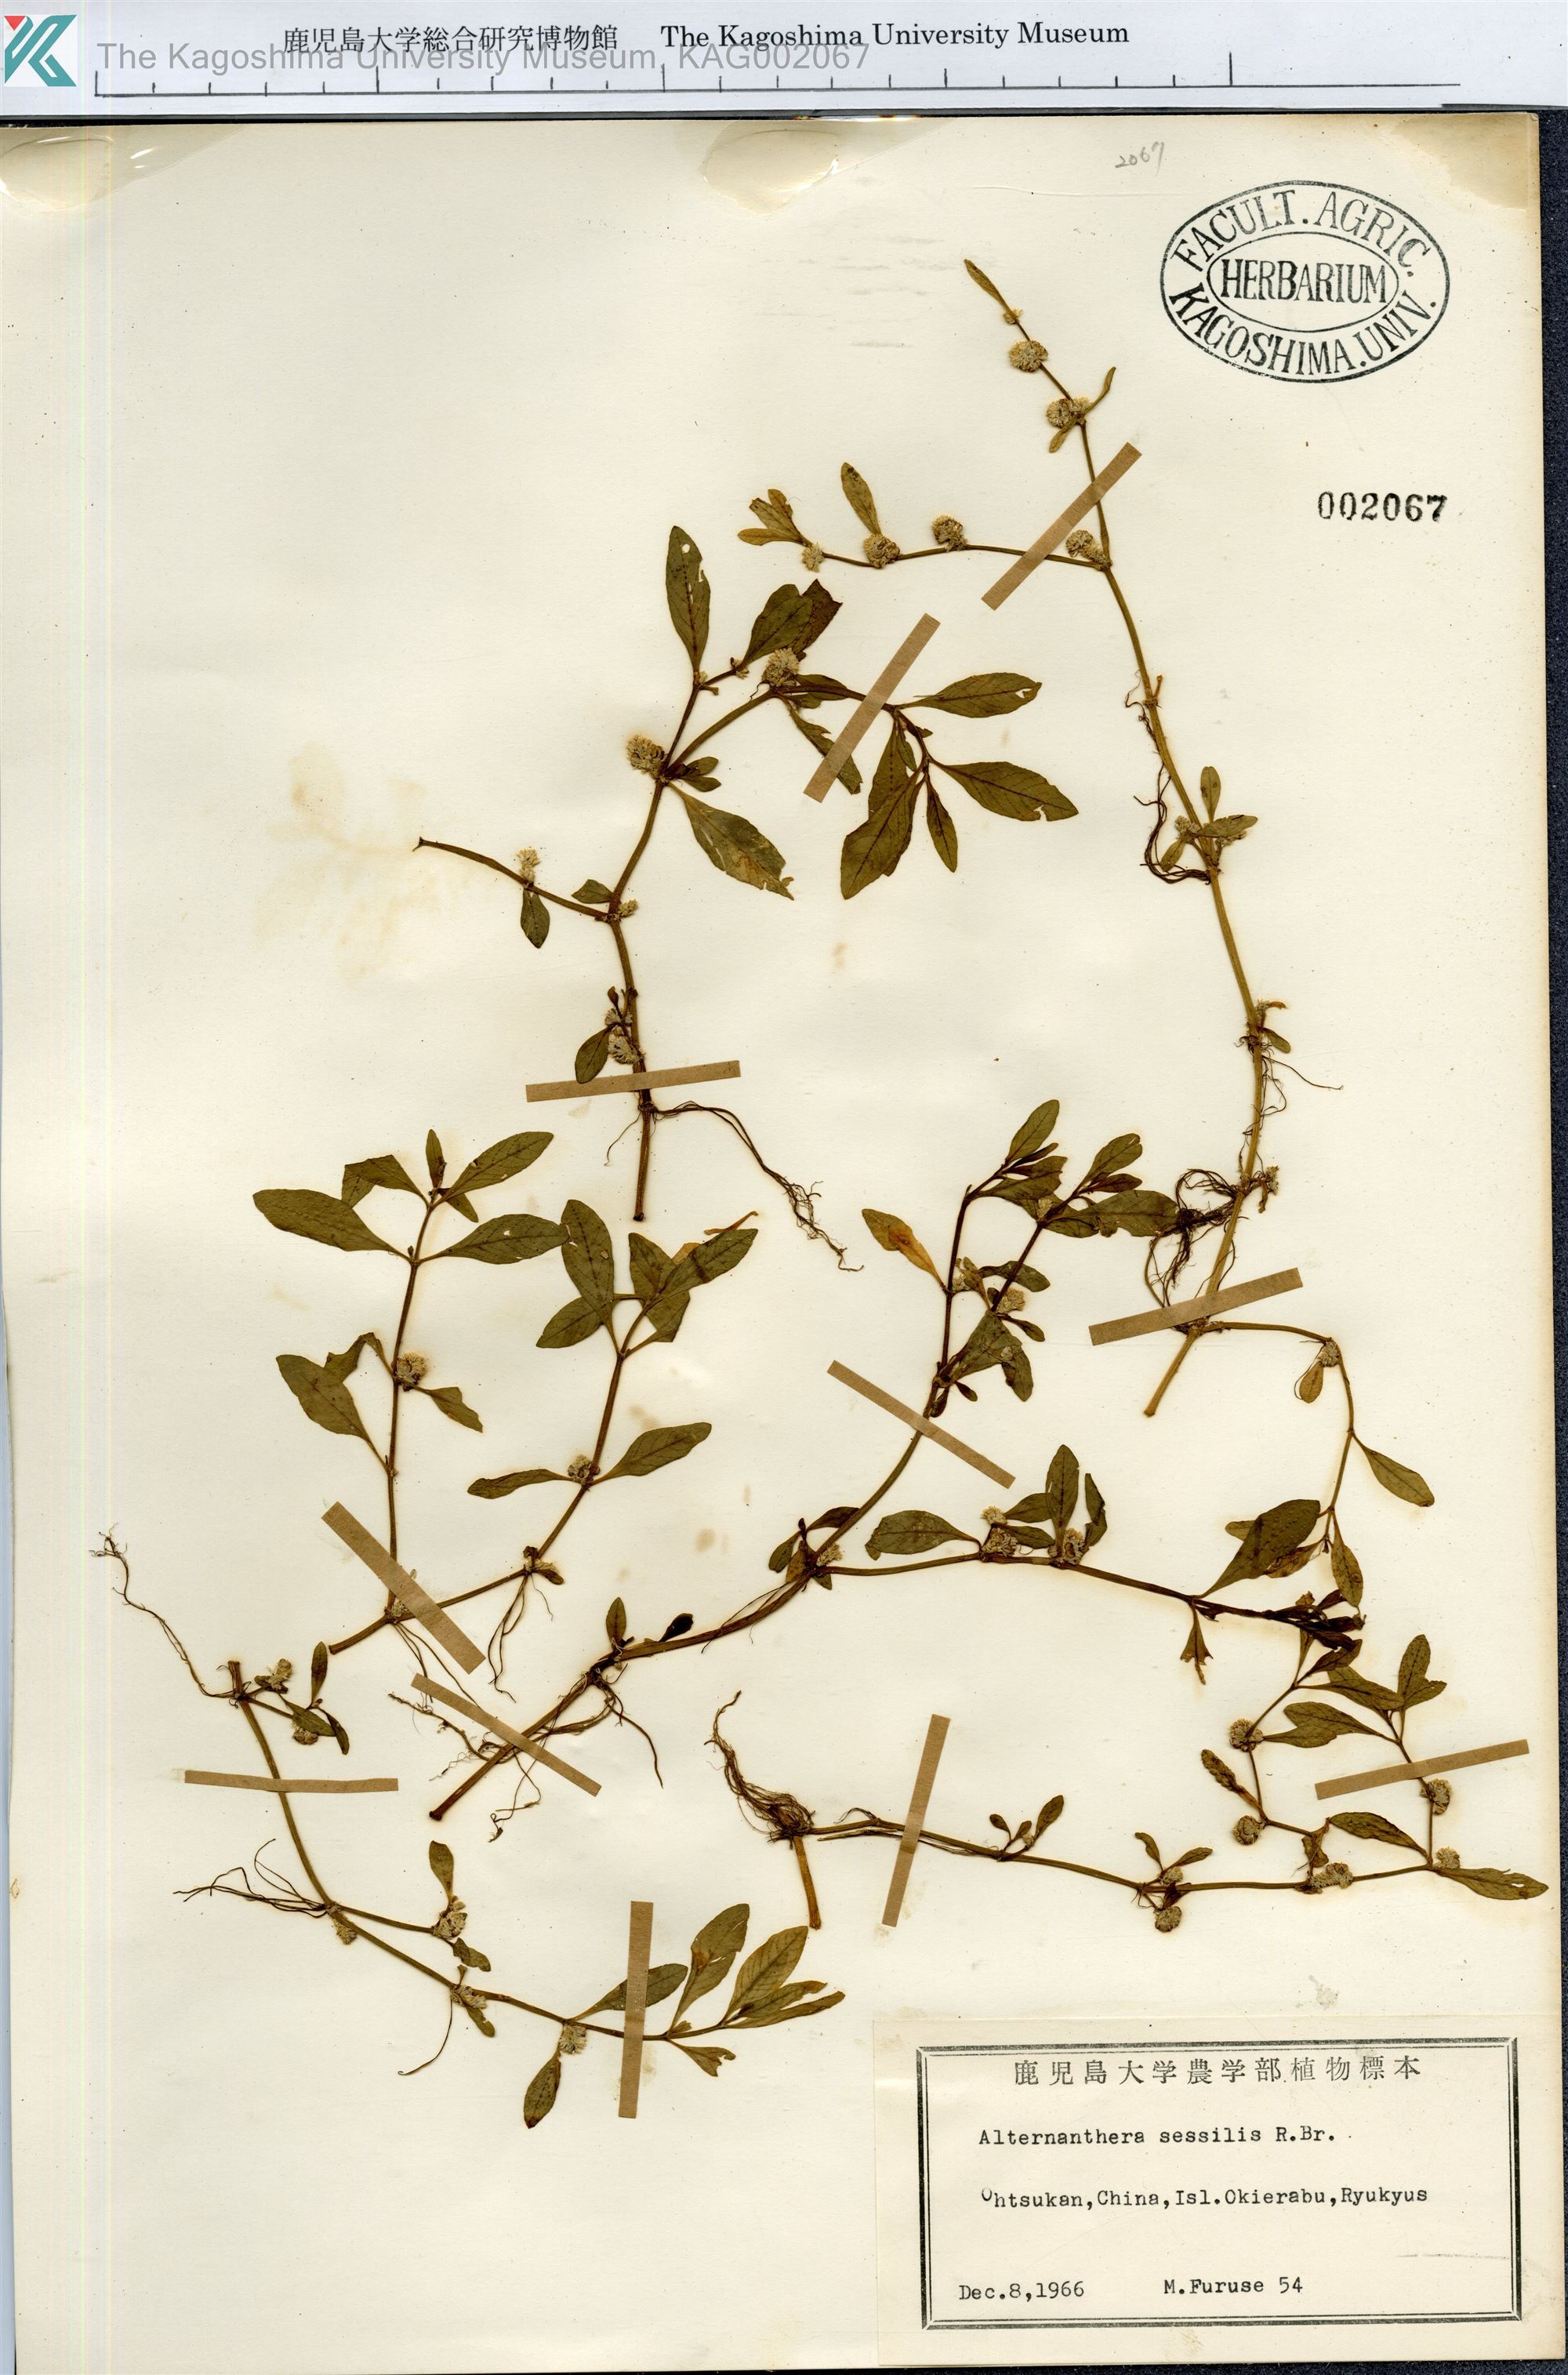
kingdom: Plantae
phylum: Tracheophyta
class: Magnoliopsida
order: Caryophyllales
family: Amaranthaceae
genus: Alternanthera
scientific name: Alternanthera sessilis
